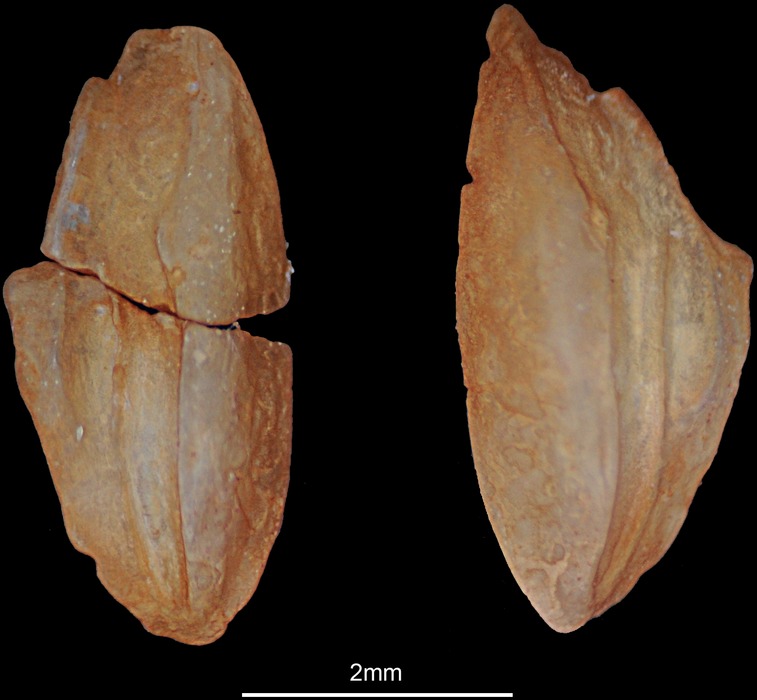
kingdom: Animalia
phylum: Chordata
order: Perciformes
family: Gerreidae
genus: Gerres
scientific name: Gerres oyena
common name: Common silver-biddy
